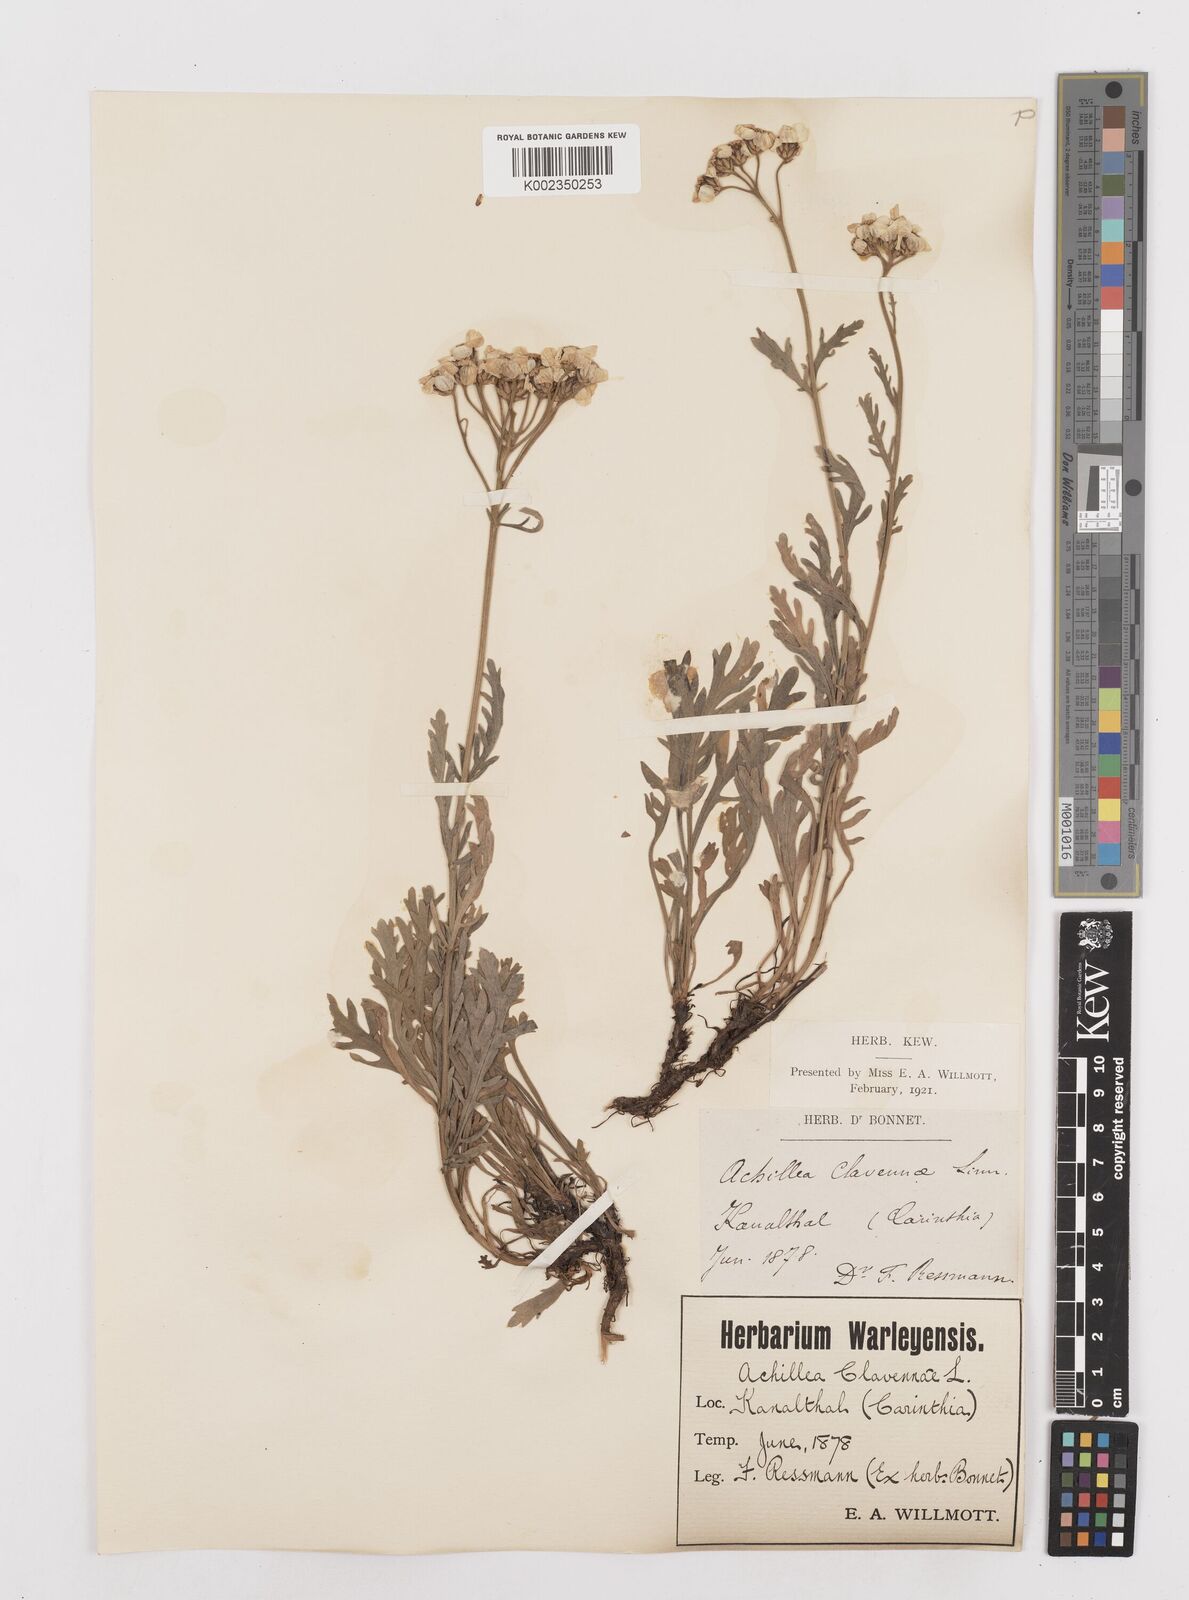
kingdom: Plantae
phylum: Tracheophyta
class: Magnoliopsida
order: Asterales
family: Asteraceae
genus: Achillea
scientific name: Achillea clavennae
